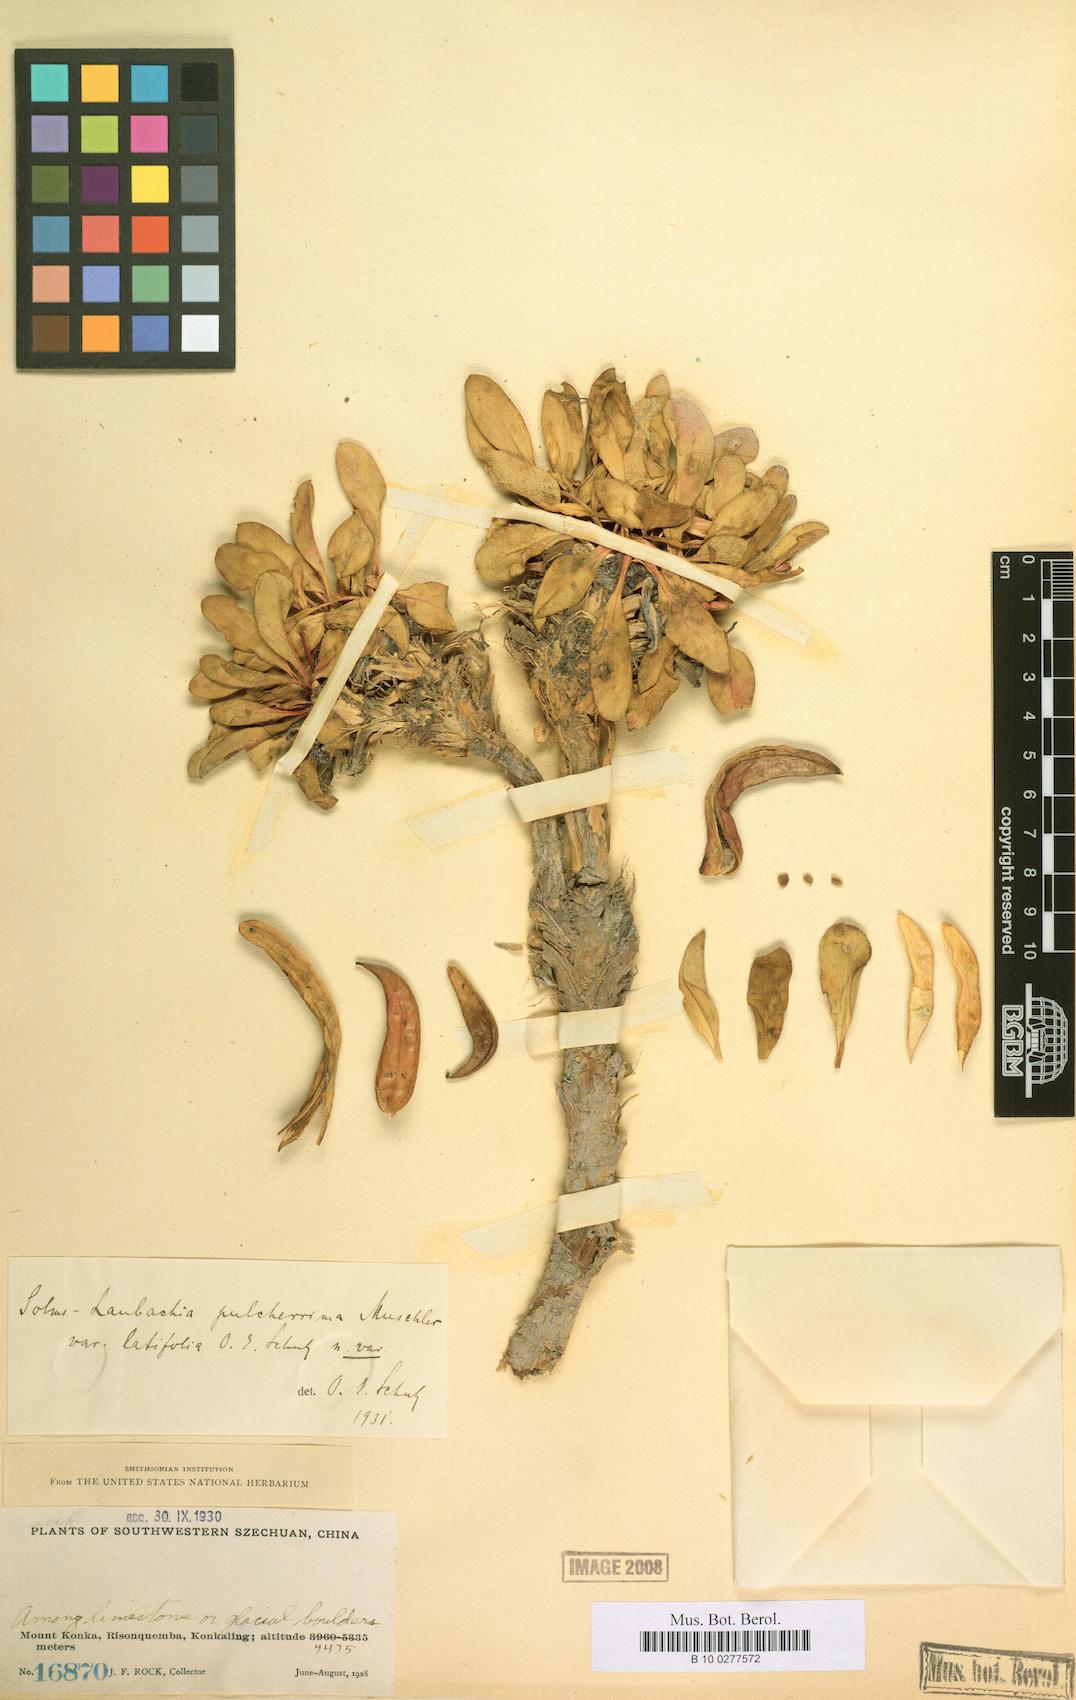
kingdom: Plantae
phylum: Tracheophyta
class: Magnoliopsida
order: Brassicales
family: Brassicaceae
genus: Solms-laubachia
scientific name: Solms-laubachia eurycarpa
